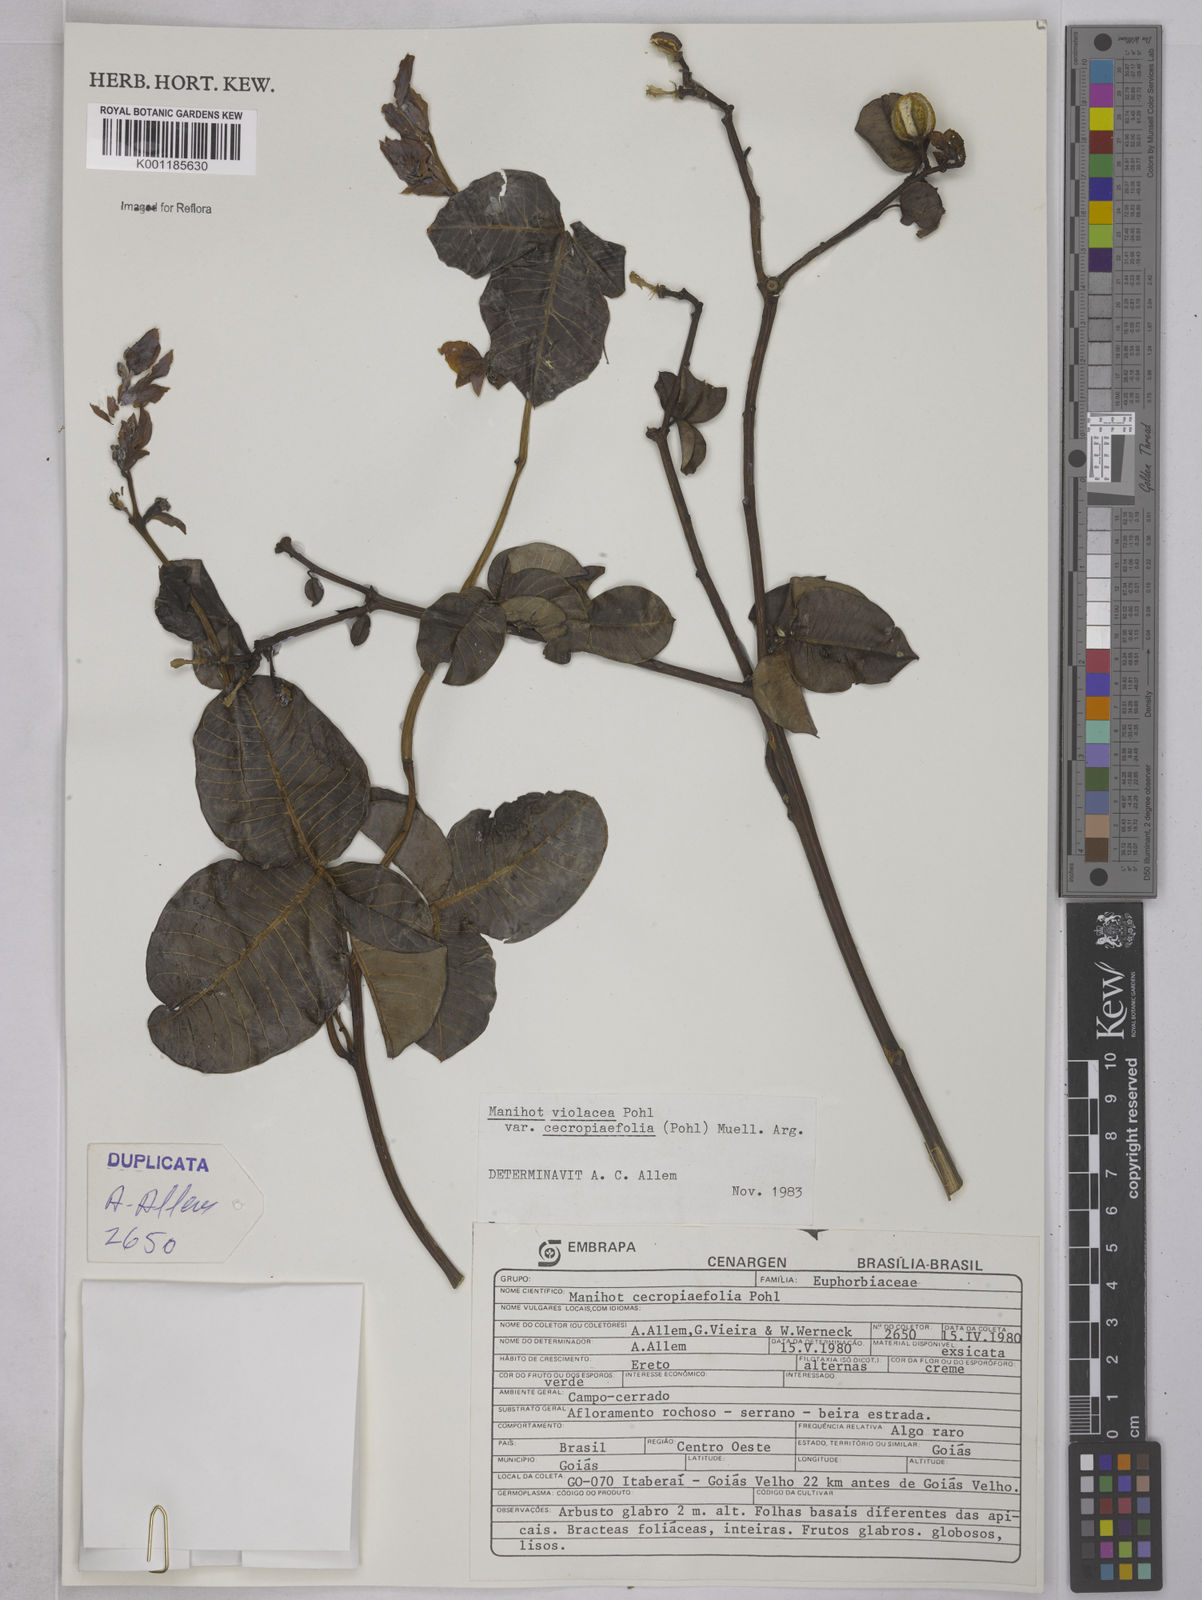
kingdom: Plantae
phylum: Tracheophyta
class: Magnoliopsida
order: Malpighiales
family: Euphorbiaceae
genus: Manihot
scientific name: Manihot cecropiifolia
